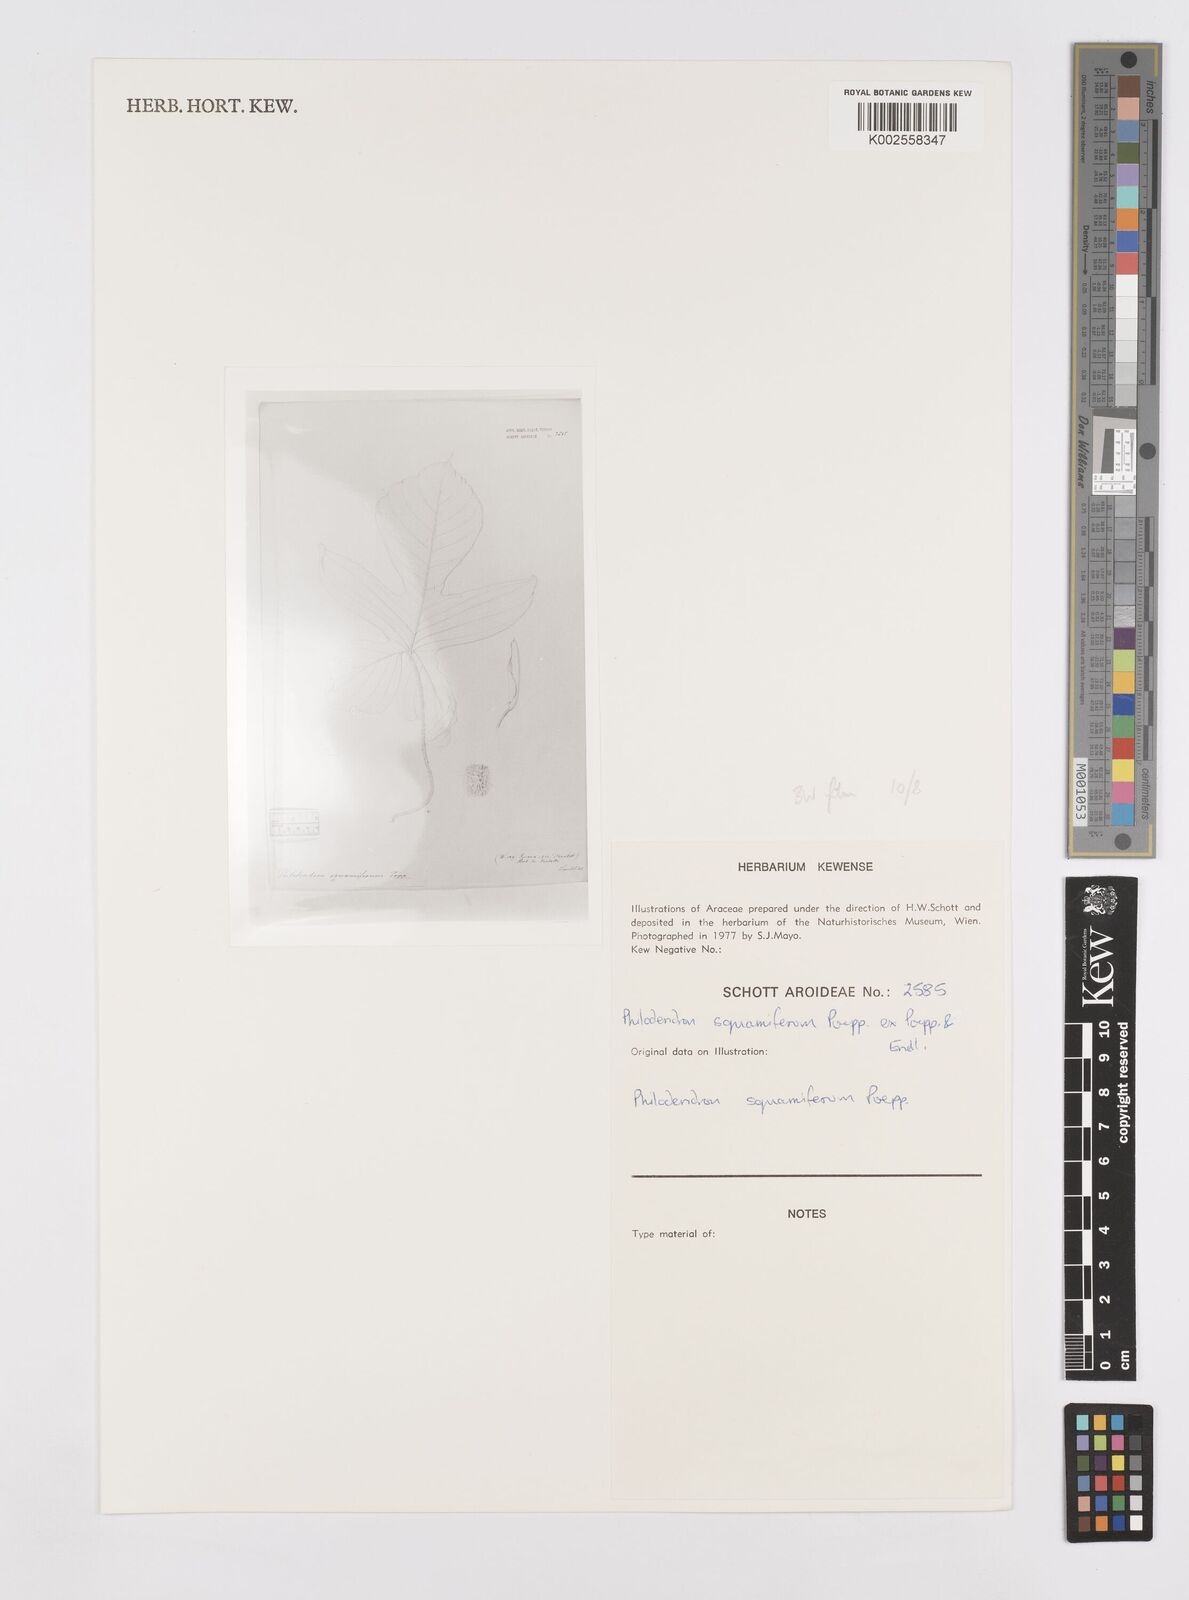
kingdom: Plantae
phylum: Tracheophyta
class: Liliopsida
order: Alismatales
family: Araceae
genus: Philodendron
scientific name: Philodendron squamiferum
